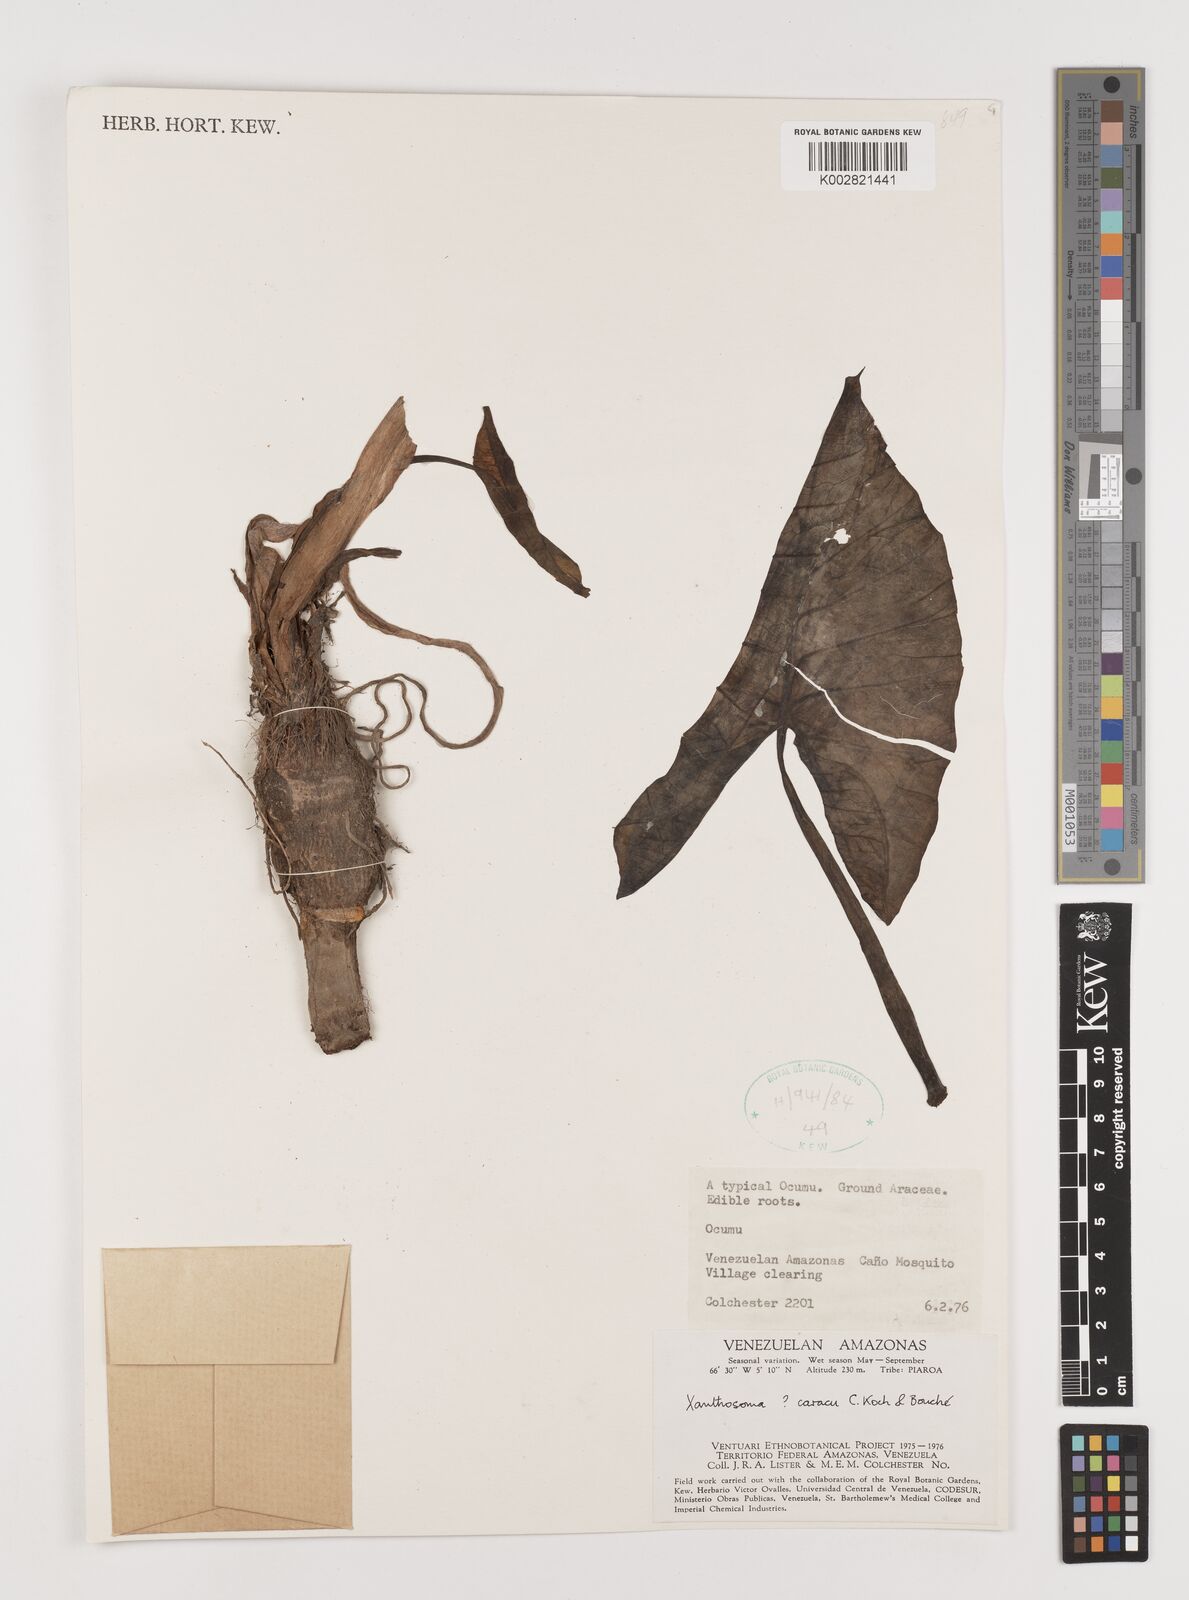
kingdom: Plantae
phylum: Tracheophyta
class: Liliopsida
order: Alismatales
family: Araceae
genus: Xanthosoma
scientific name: Xanthosoma caracu
